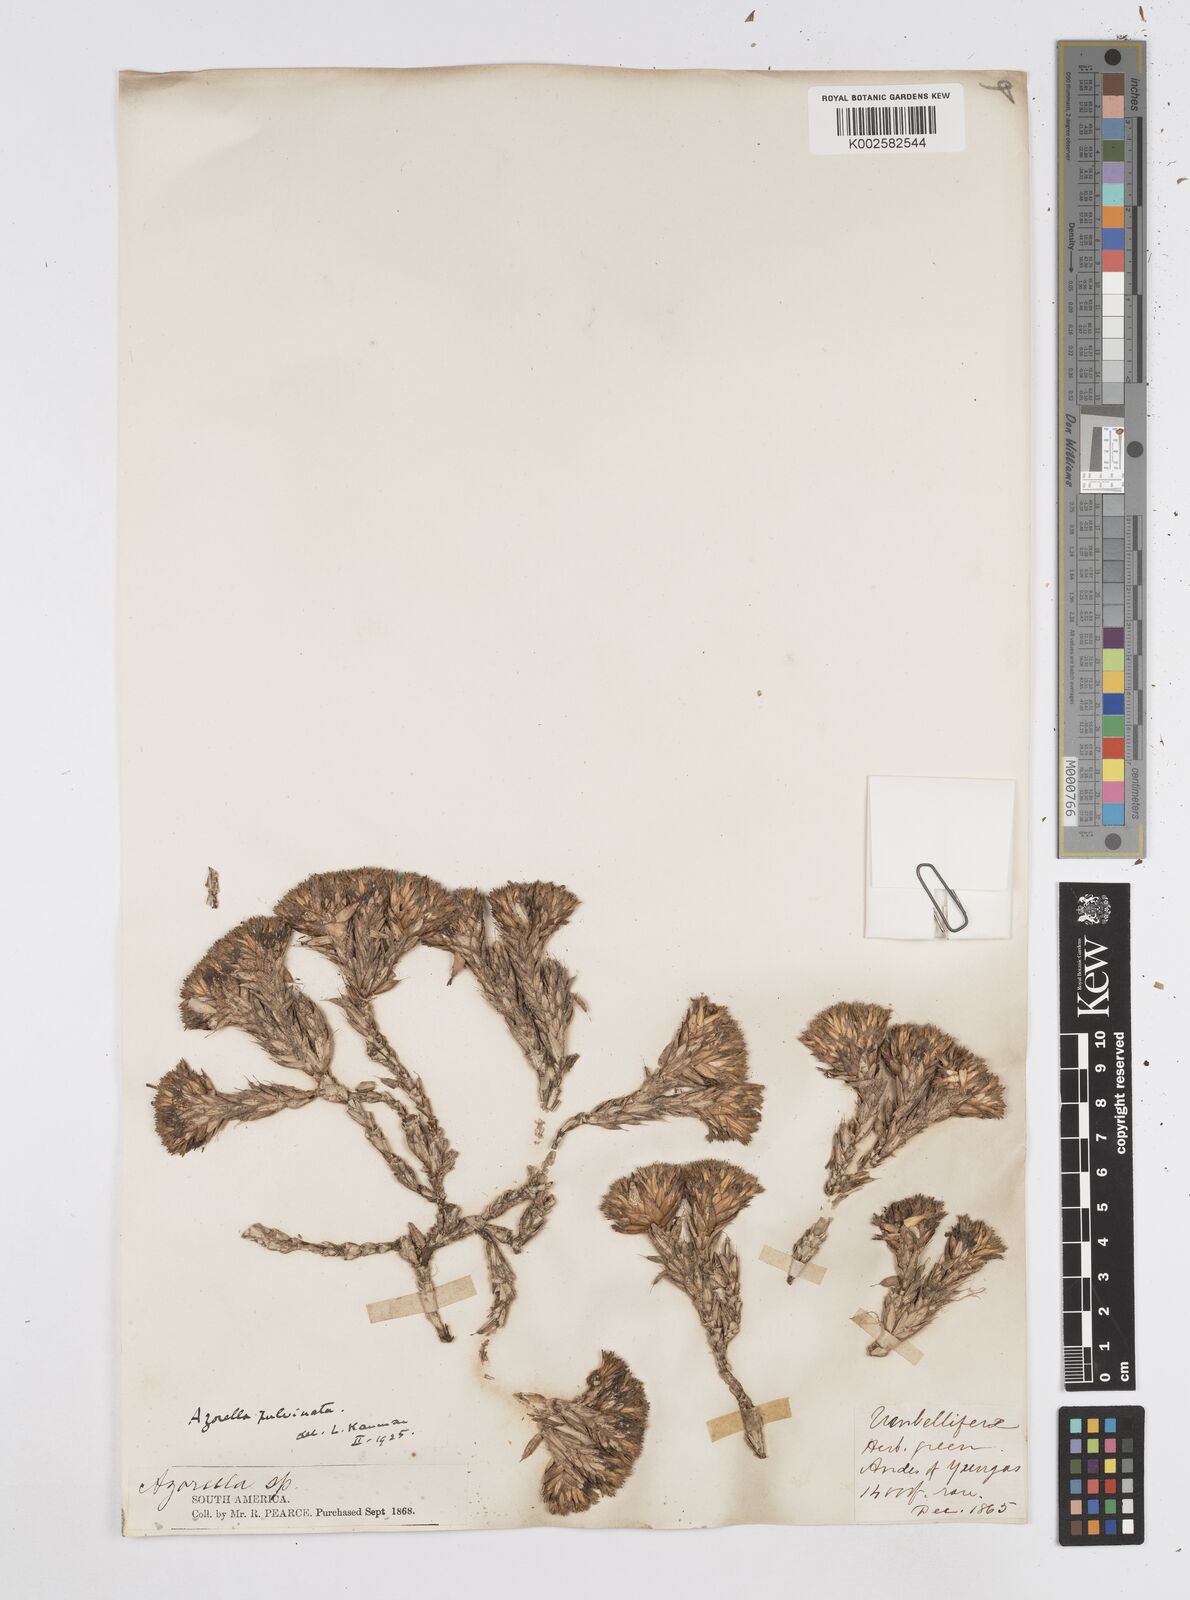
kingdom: Plantae
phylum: Tracheophyta
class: Magnoliopsida
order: Apiales
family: Apiaceae
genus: Azorella
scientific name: Azorella pulvinata
